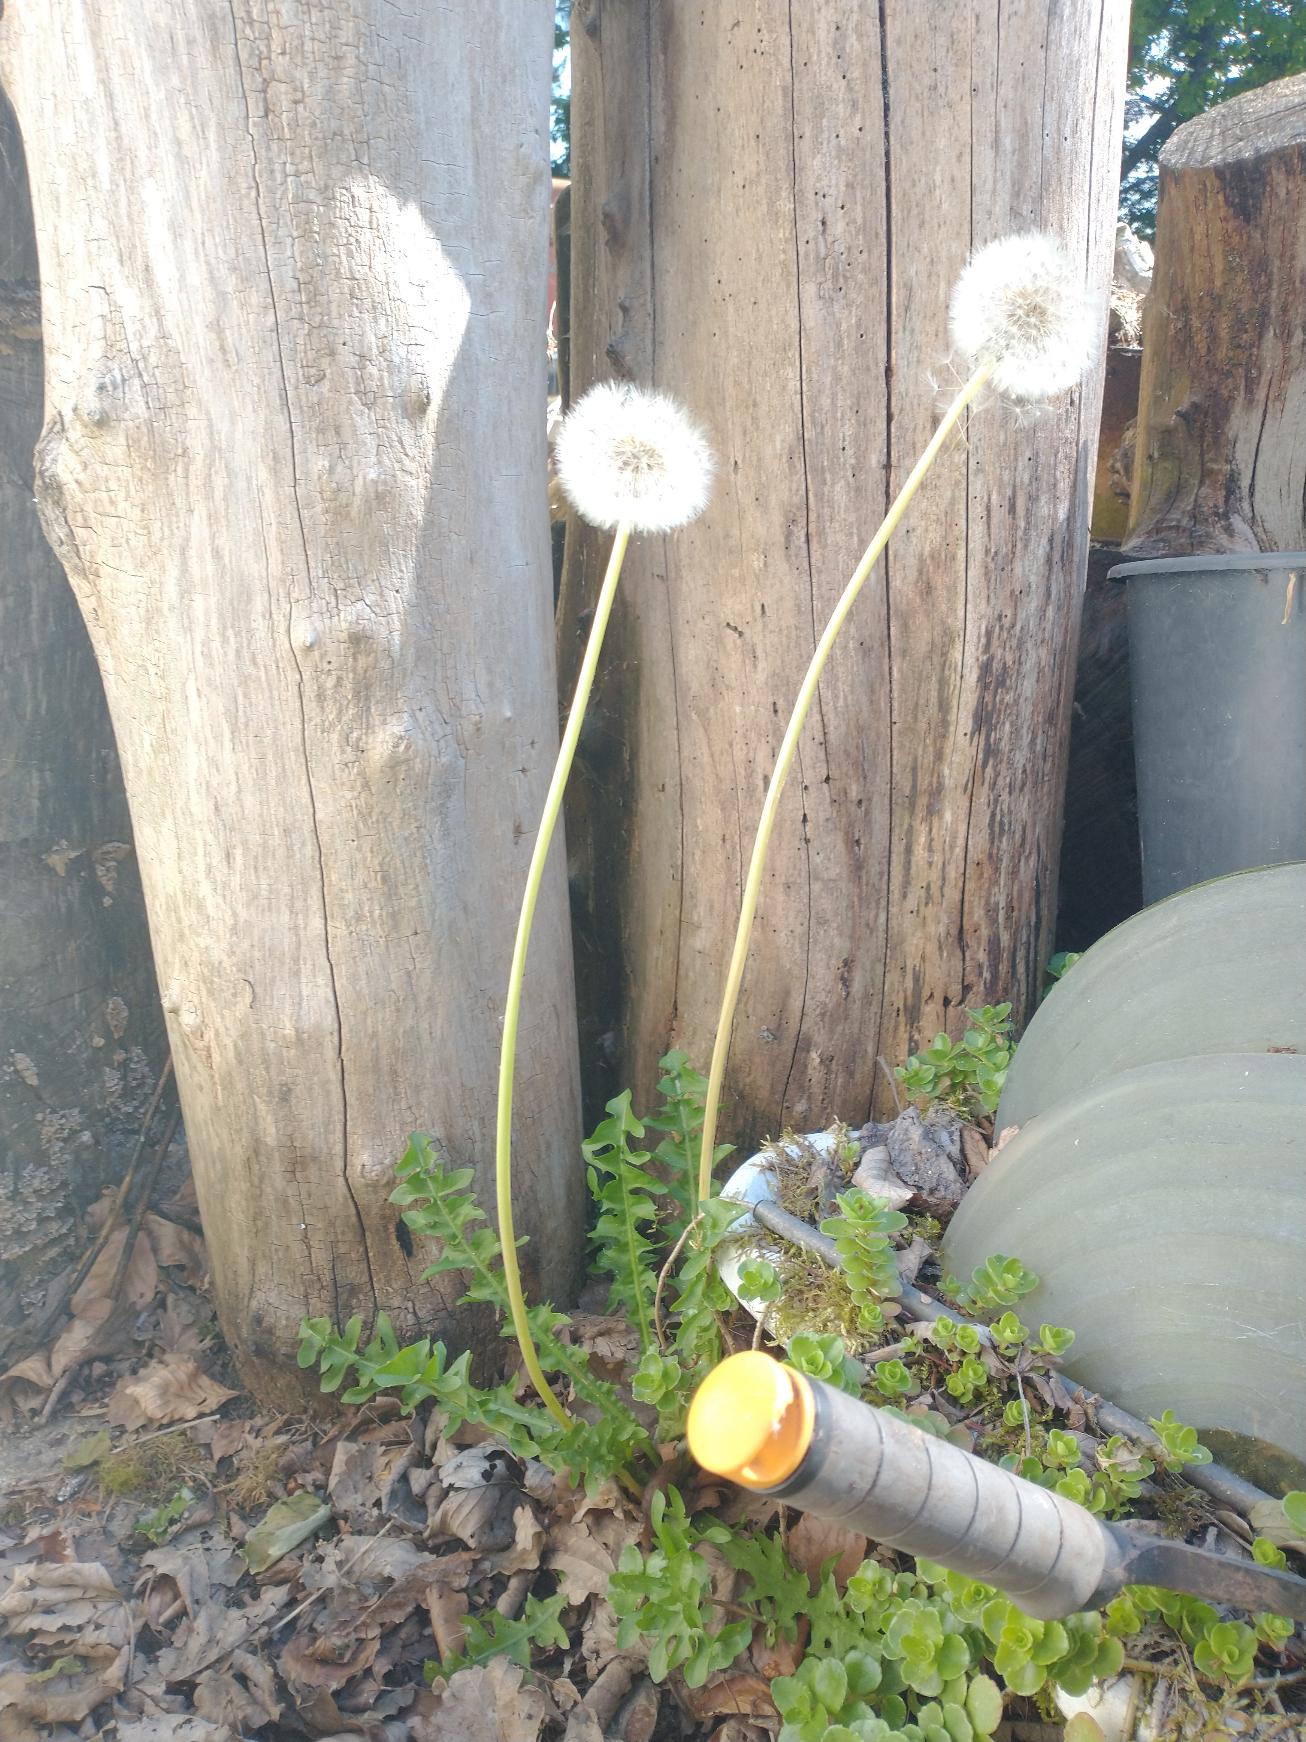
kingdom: Plantae
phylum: Tracheophyta
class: Magnoliopsida
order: Asterales
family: Asteraceae
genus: Taraxacum
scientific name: Taraxacum corynodes
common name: Kølle-vejmælkebøtte
